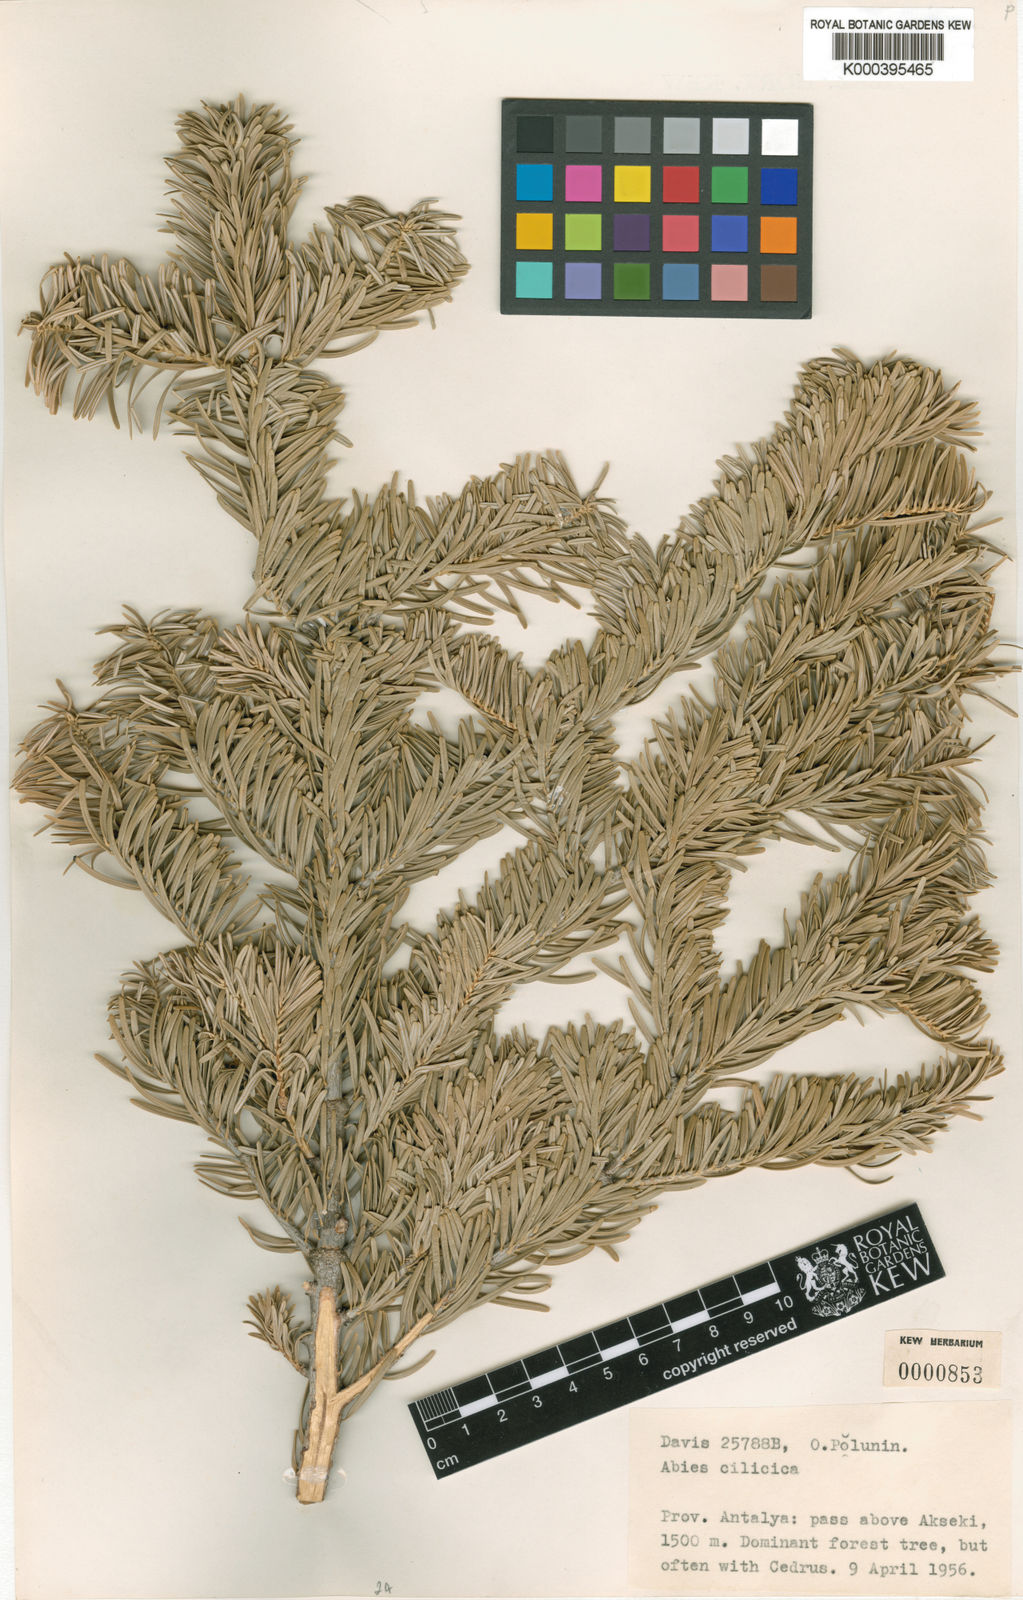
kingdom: Plantae
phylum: Tracheophyta
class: Pinopsida
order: Pinales
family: Pinaceae
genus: Abies
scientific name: Abies
